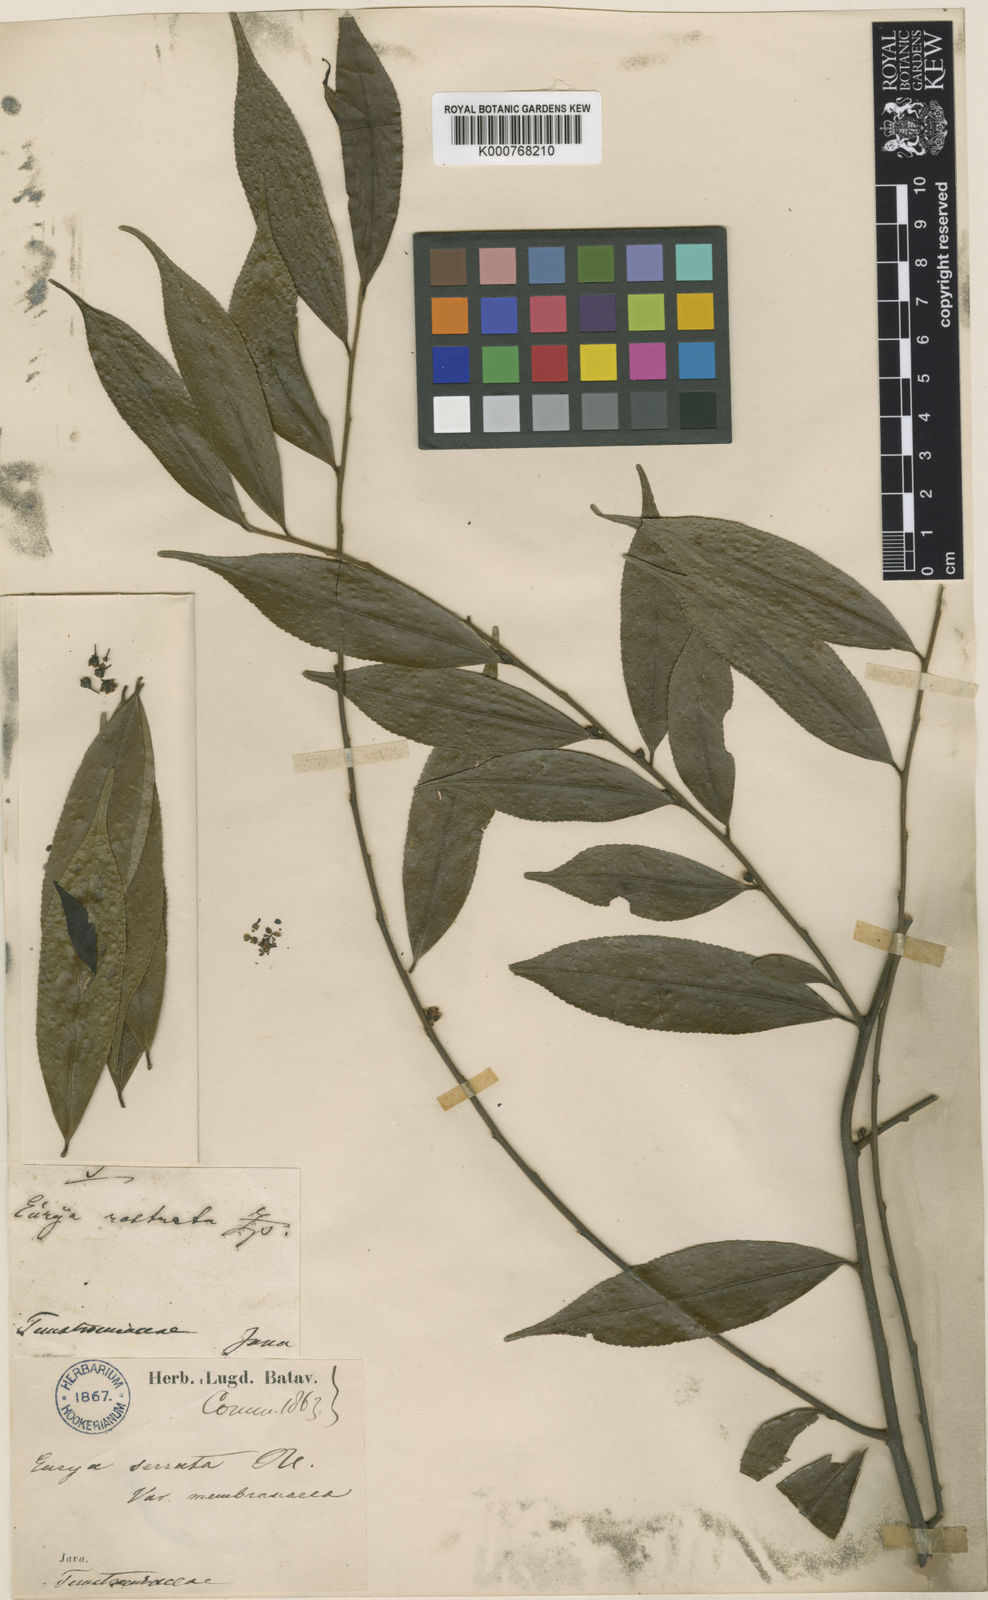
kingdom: Plantae
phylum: Tracheophyta
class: Magnoliopsida
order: Ericales
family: Pentaphylacaceae
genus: Eurya
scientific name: Eurya acuminata
